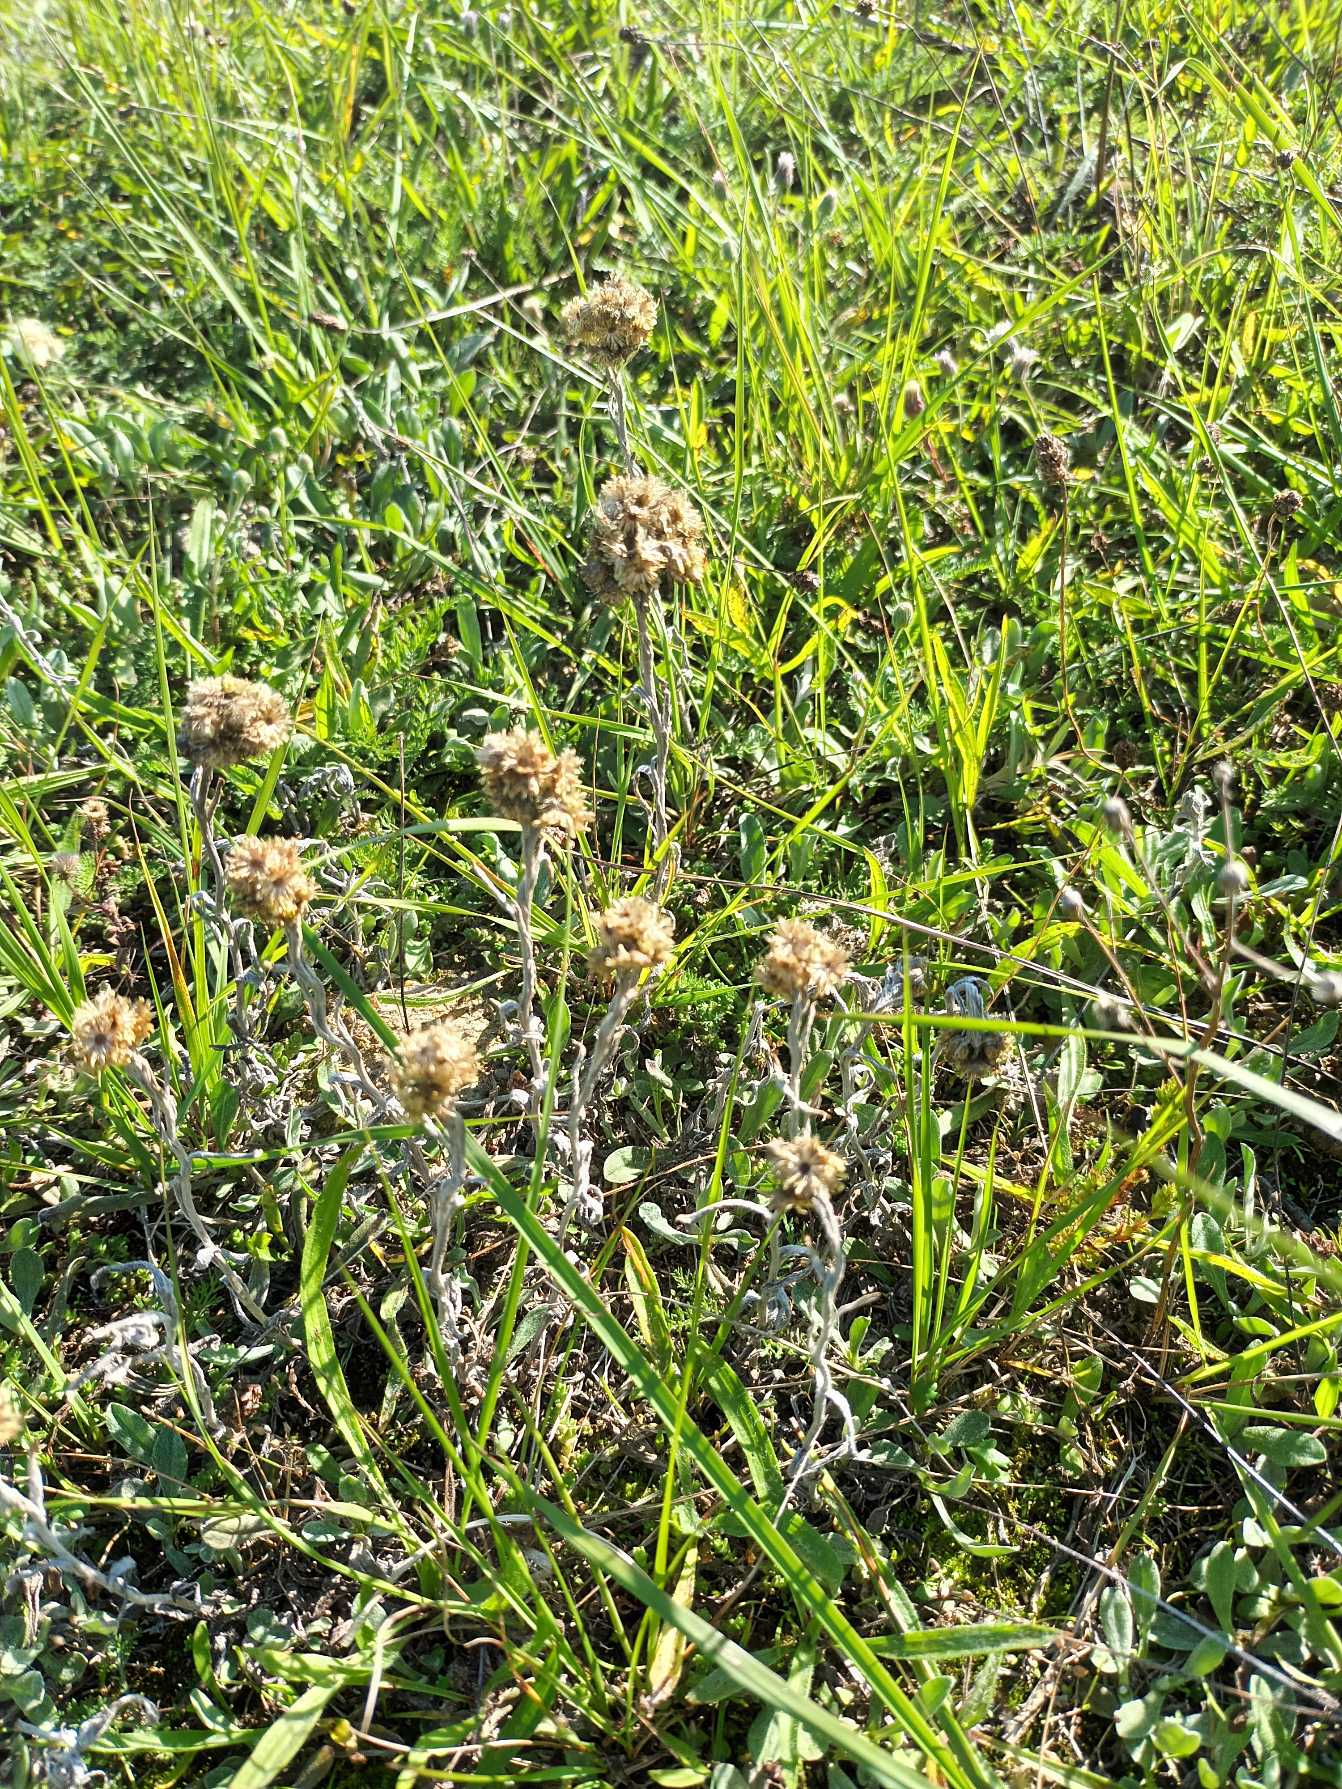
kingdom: Plantae
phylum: Tracheophyta
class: Magnoliopsida
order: Asterales
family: Asteraceae
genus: Helichrysum
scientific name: Helichrysum arenarium
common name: Gul evighedsblomst
